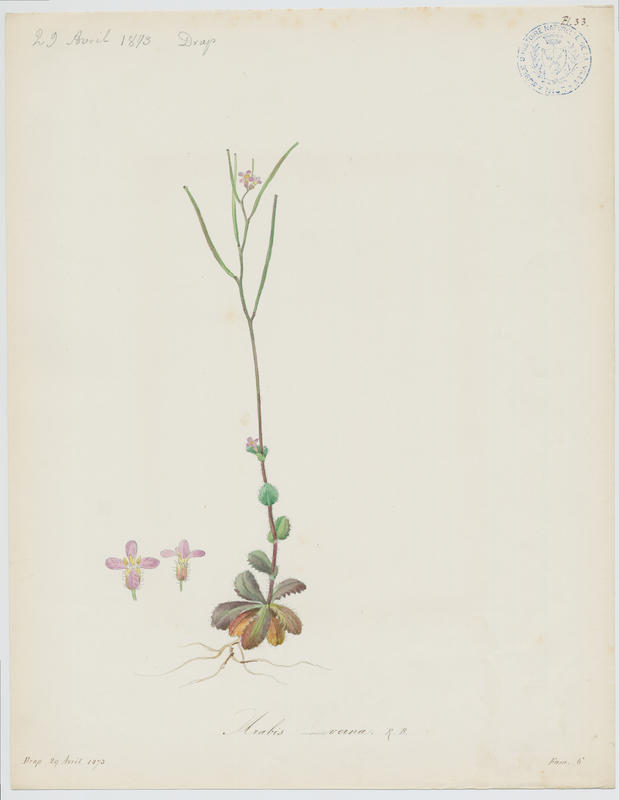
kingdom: Plantae
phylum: Tracheophyta
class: Magnoliopsida
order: Brassicales
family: Brassicaceae
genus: Arabis
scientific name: Arabis verna
